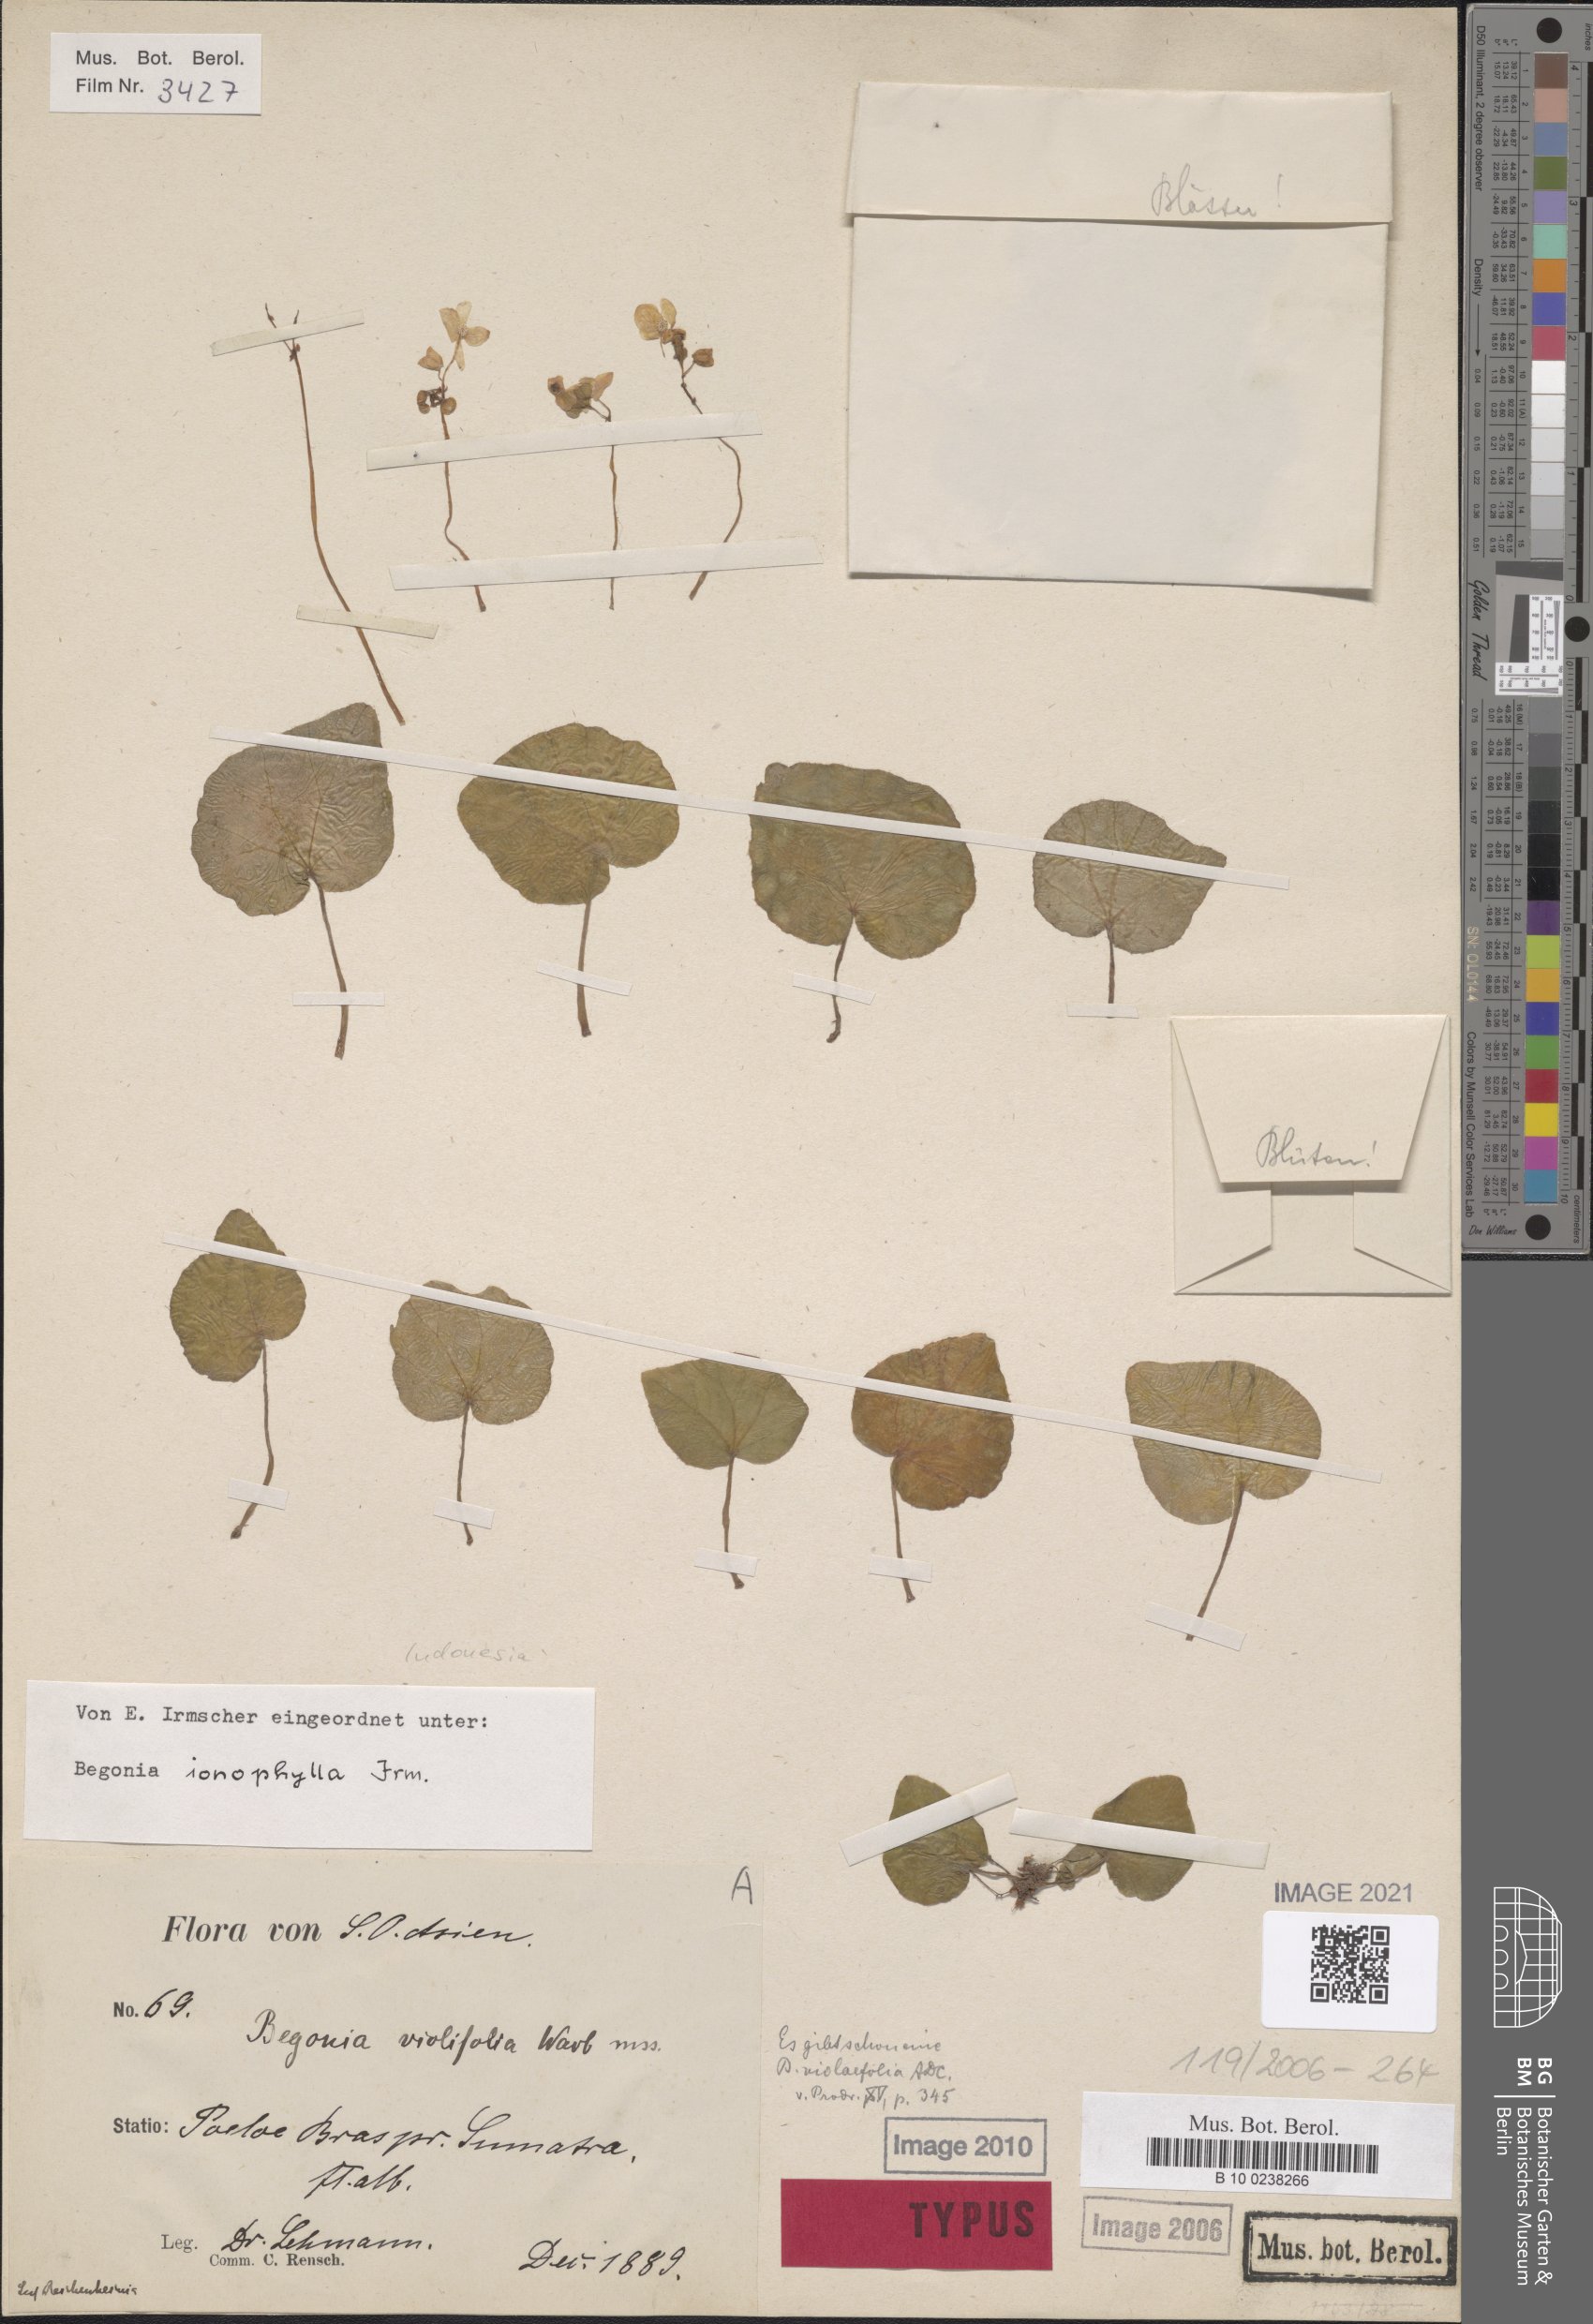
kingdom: Plantae
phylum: Tracheophyta
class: Magnoliopsida
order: Cucurbitales
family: Begoniaceae
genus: Begonia
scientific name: Begonia ionophylla
